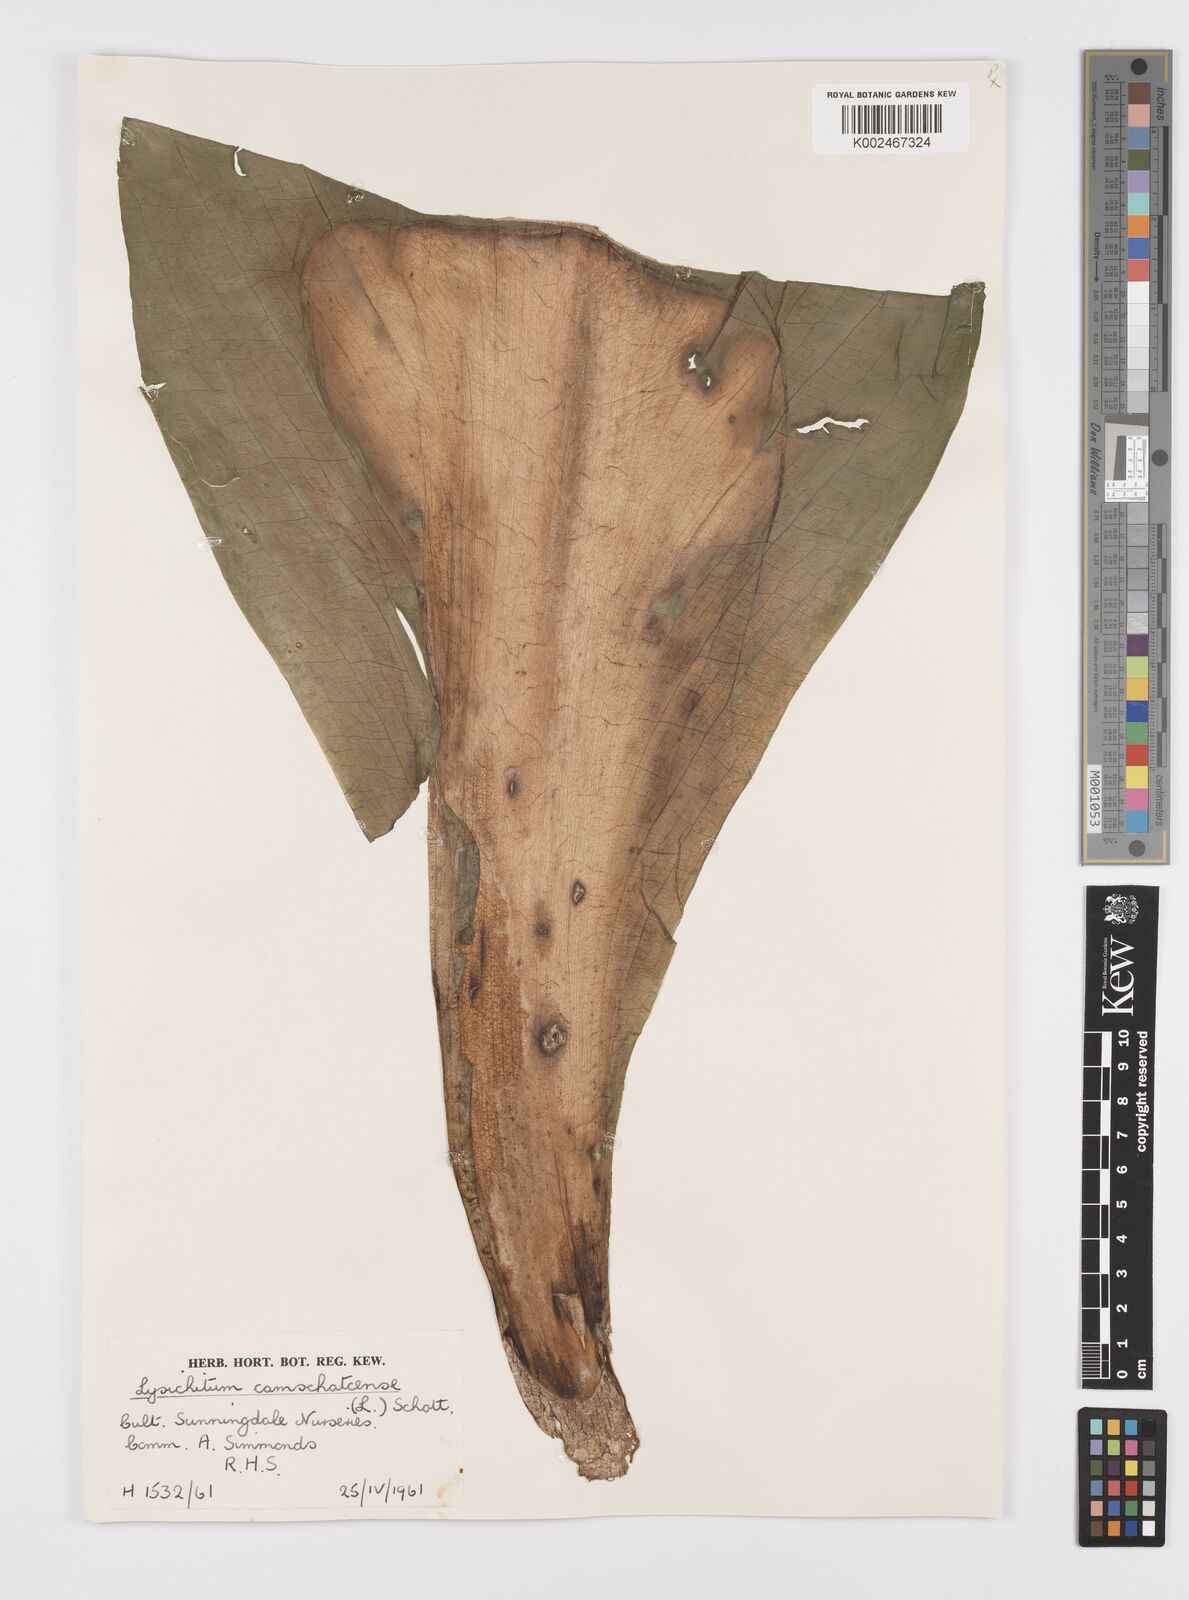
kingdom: Plantae
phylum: Tracheophyta
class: Liliopsida
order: Alismatales
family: Araceae
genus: Lysichiton
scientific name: Lysichiton americanus
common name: American skunk cabbage
